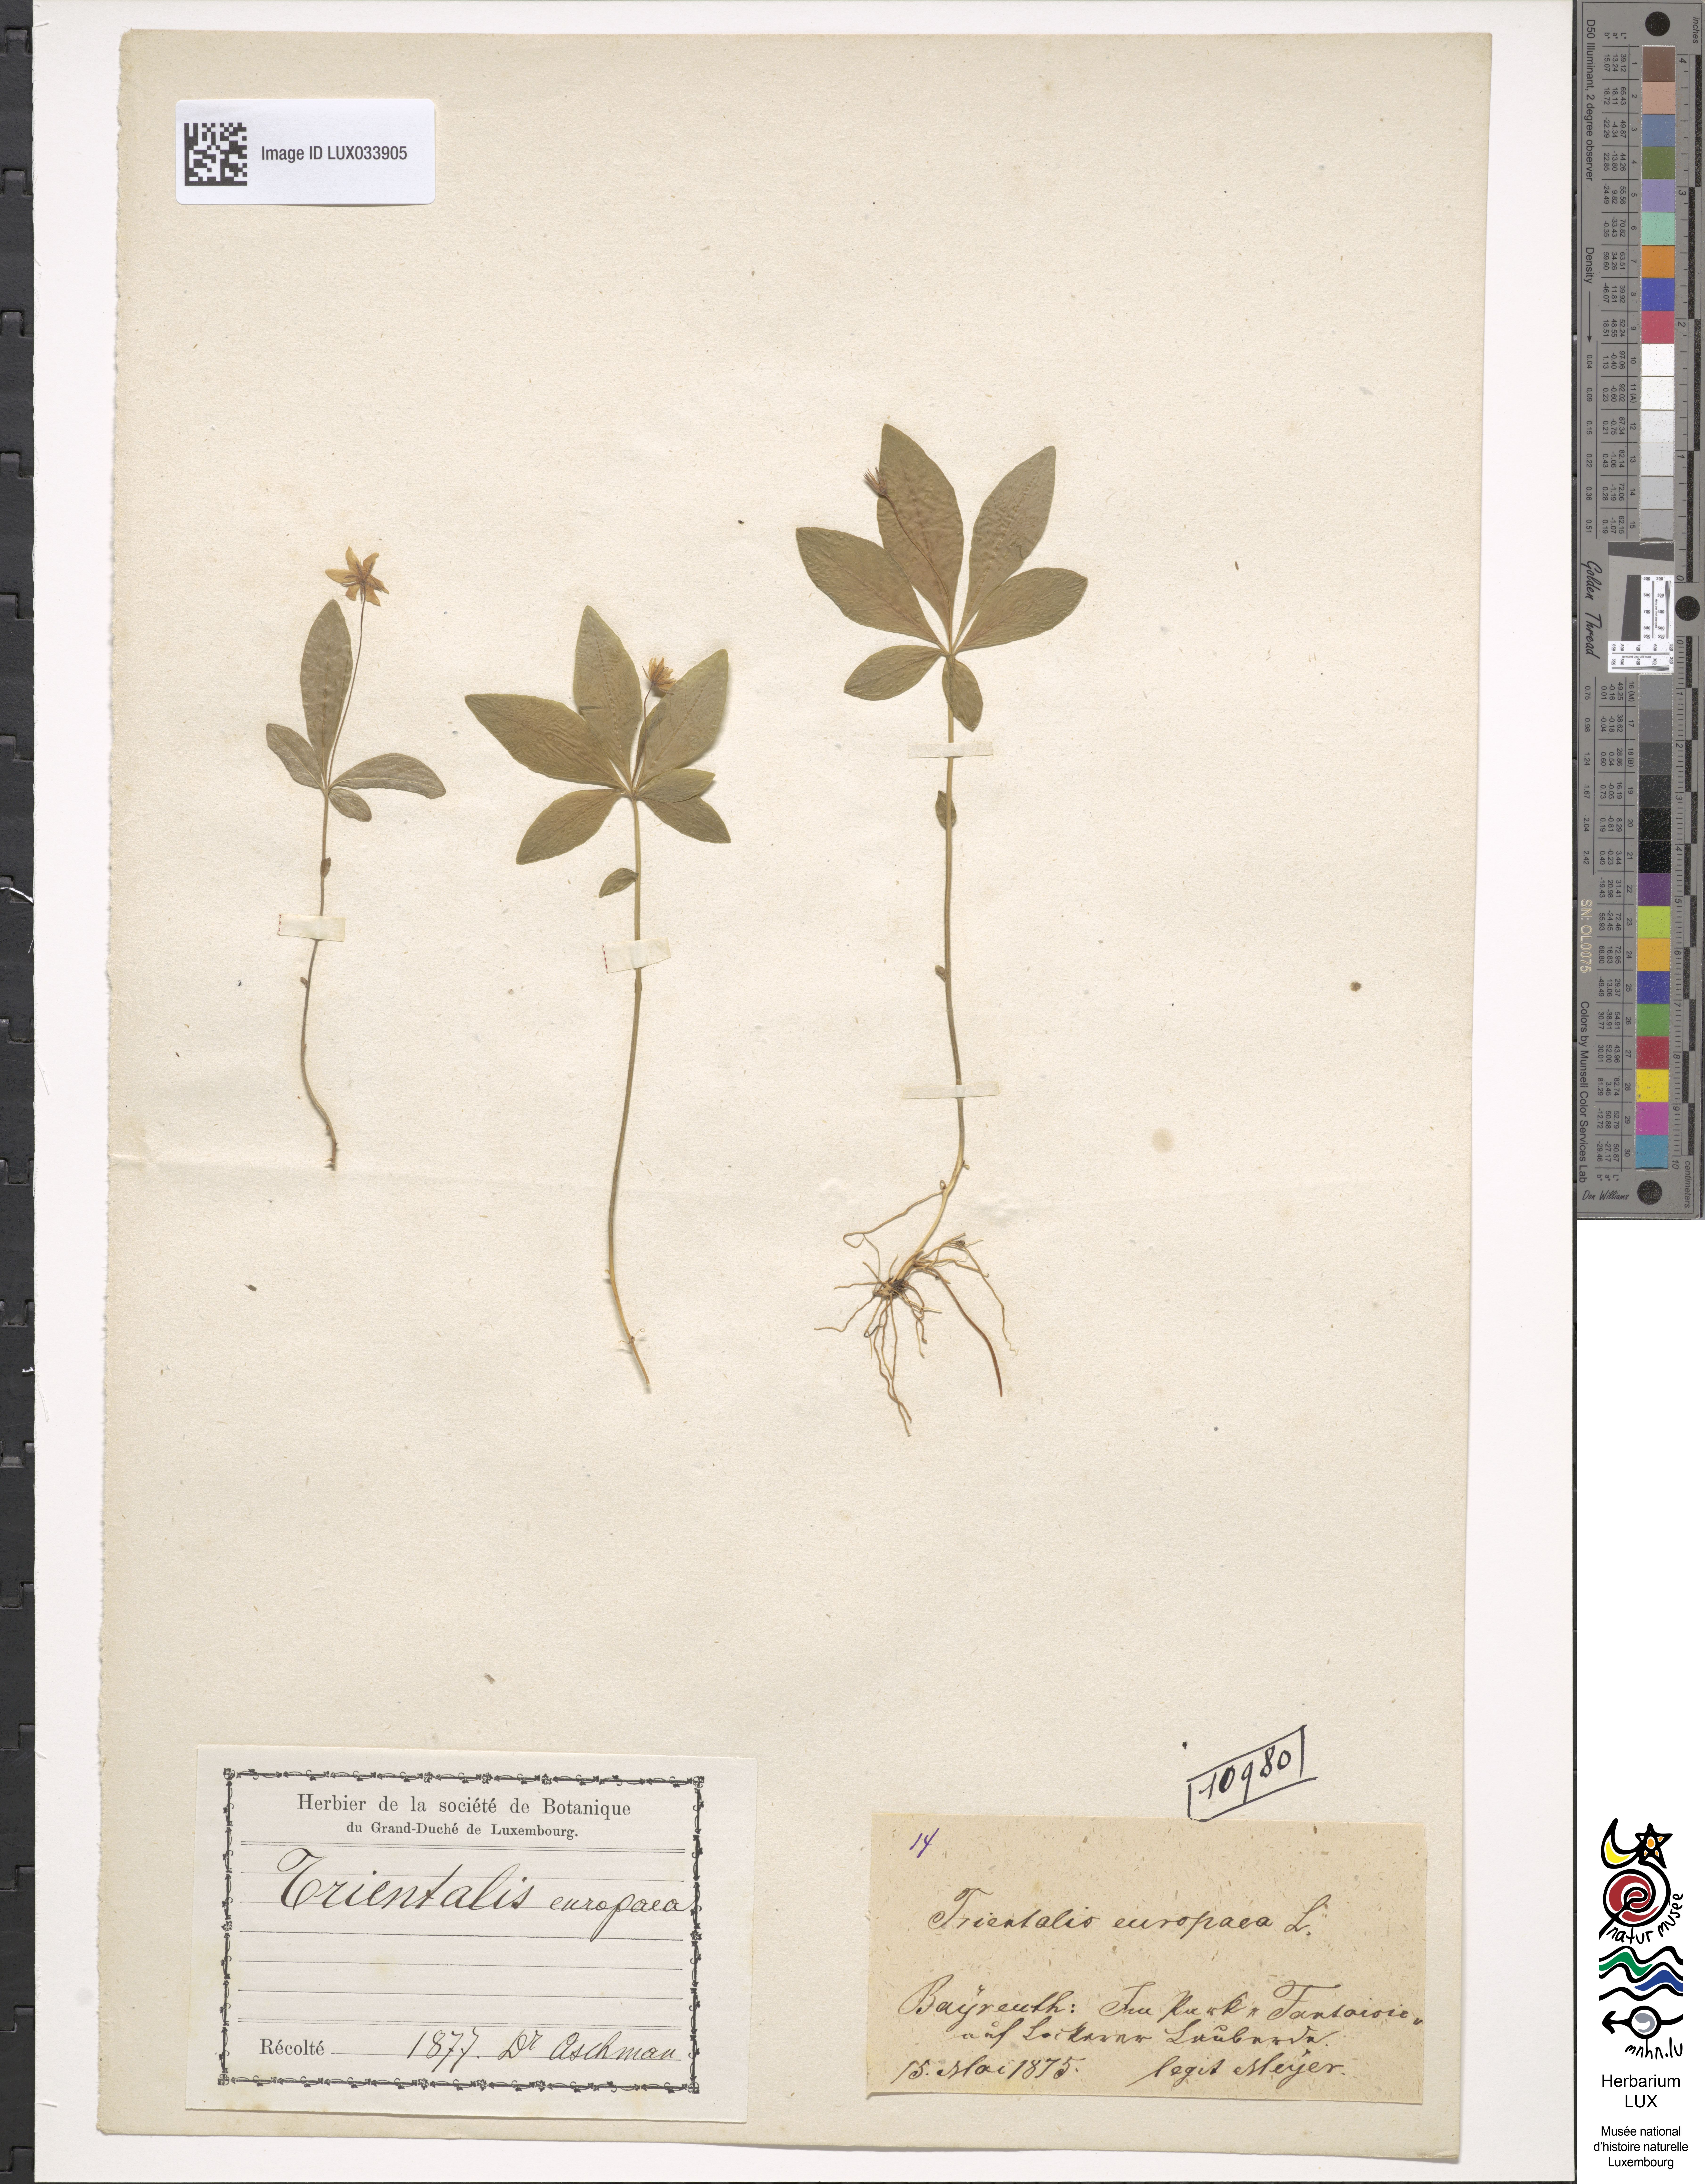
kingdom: Plantae
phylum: Tracheophyta
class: Magnoliopsida
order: Ericales
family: Primulaceae
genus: Lysimachia
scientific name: Lysimachia europaea
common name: Arctic starflower
